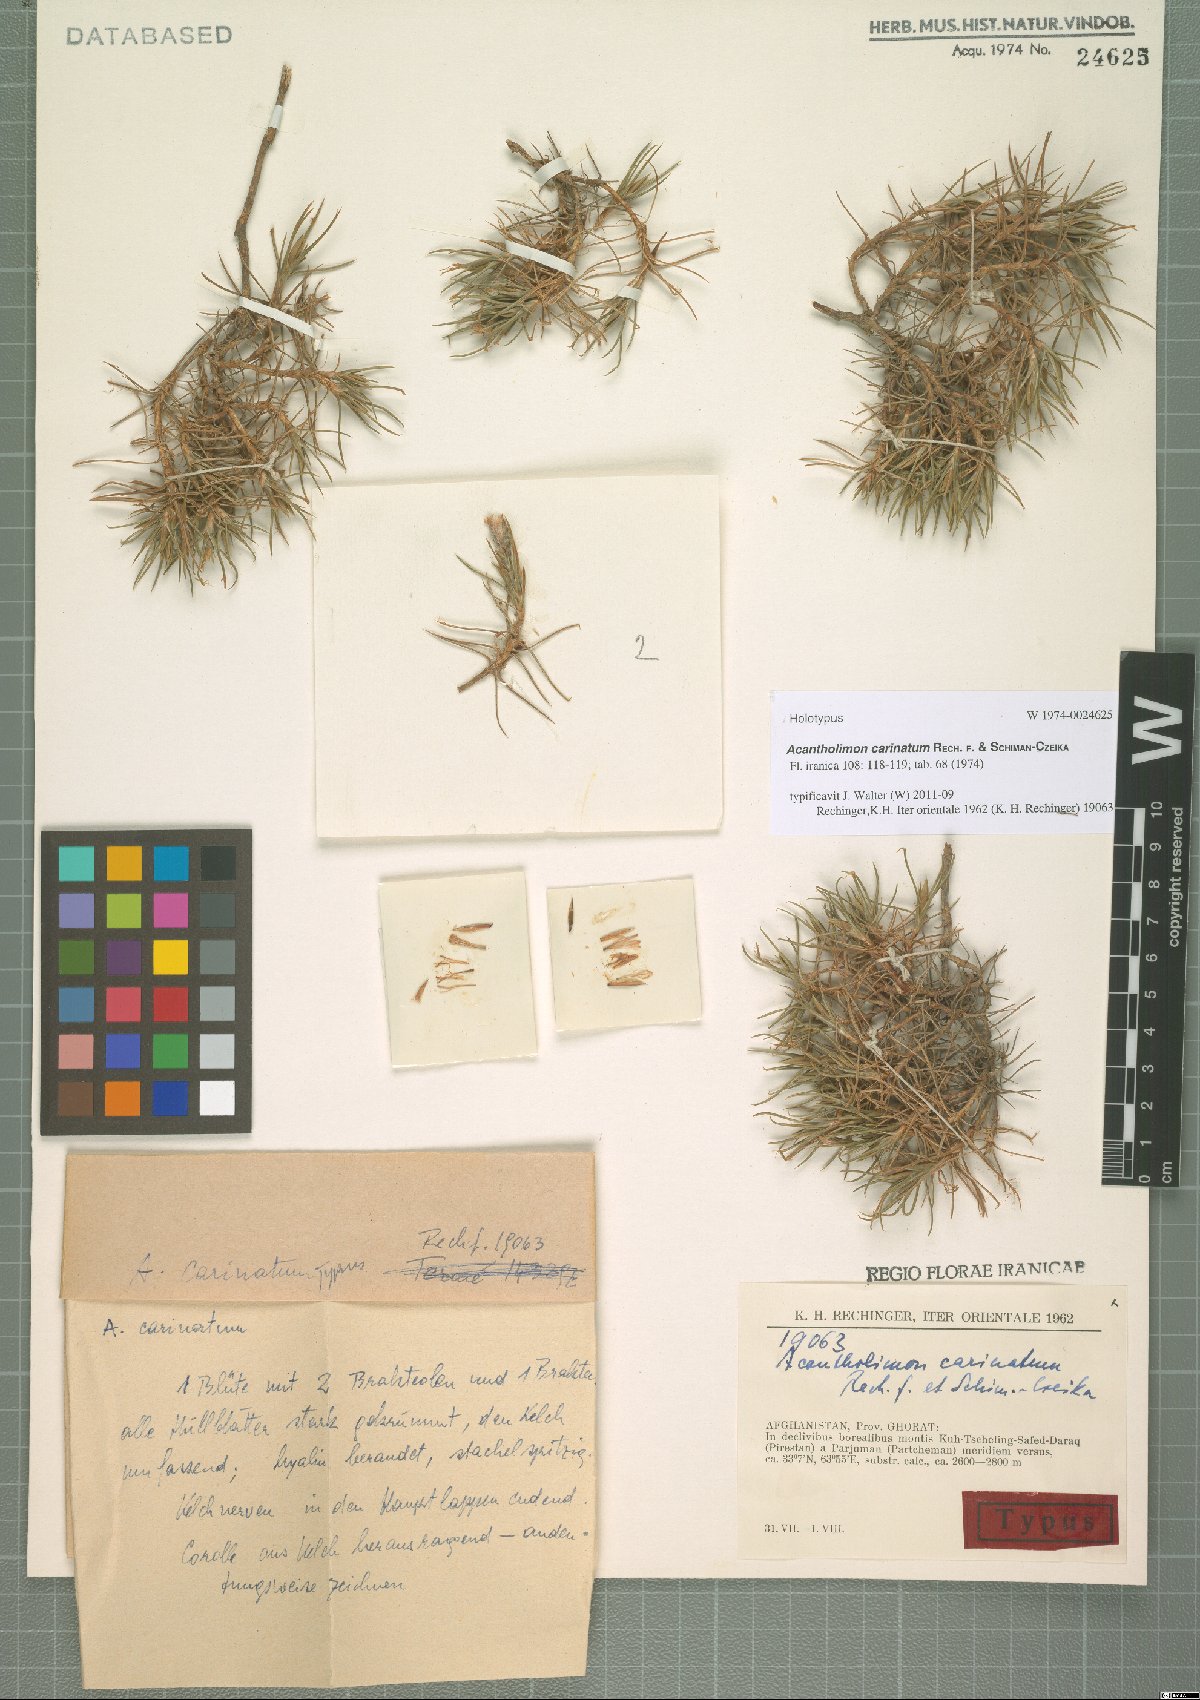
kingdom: Plantae
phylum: Tracheophyta
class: Magnoliopsida
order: Caryophyllales
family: Plumbaginaceae
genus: Acantholimon
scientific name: Acantholimon carinatum
